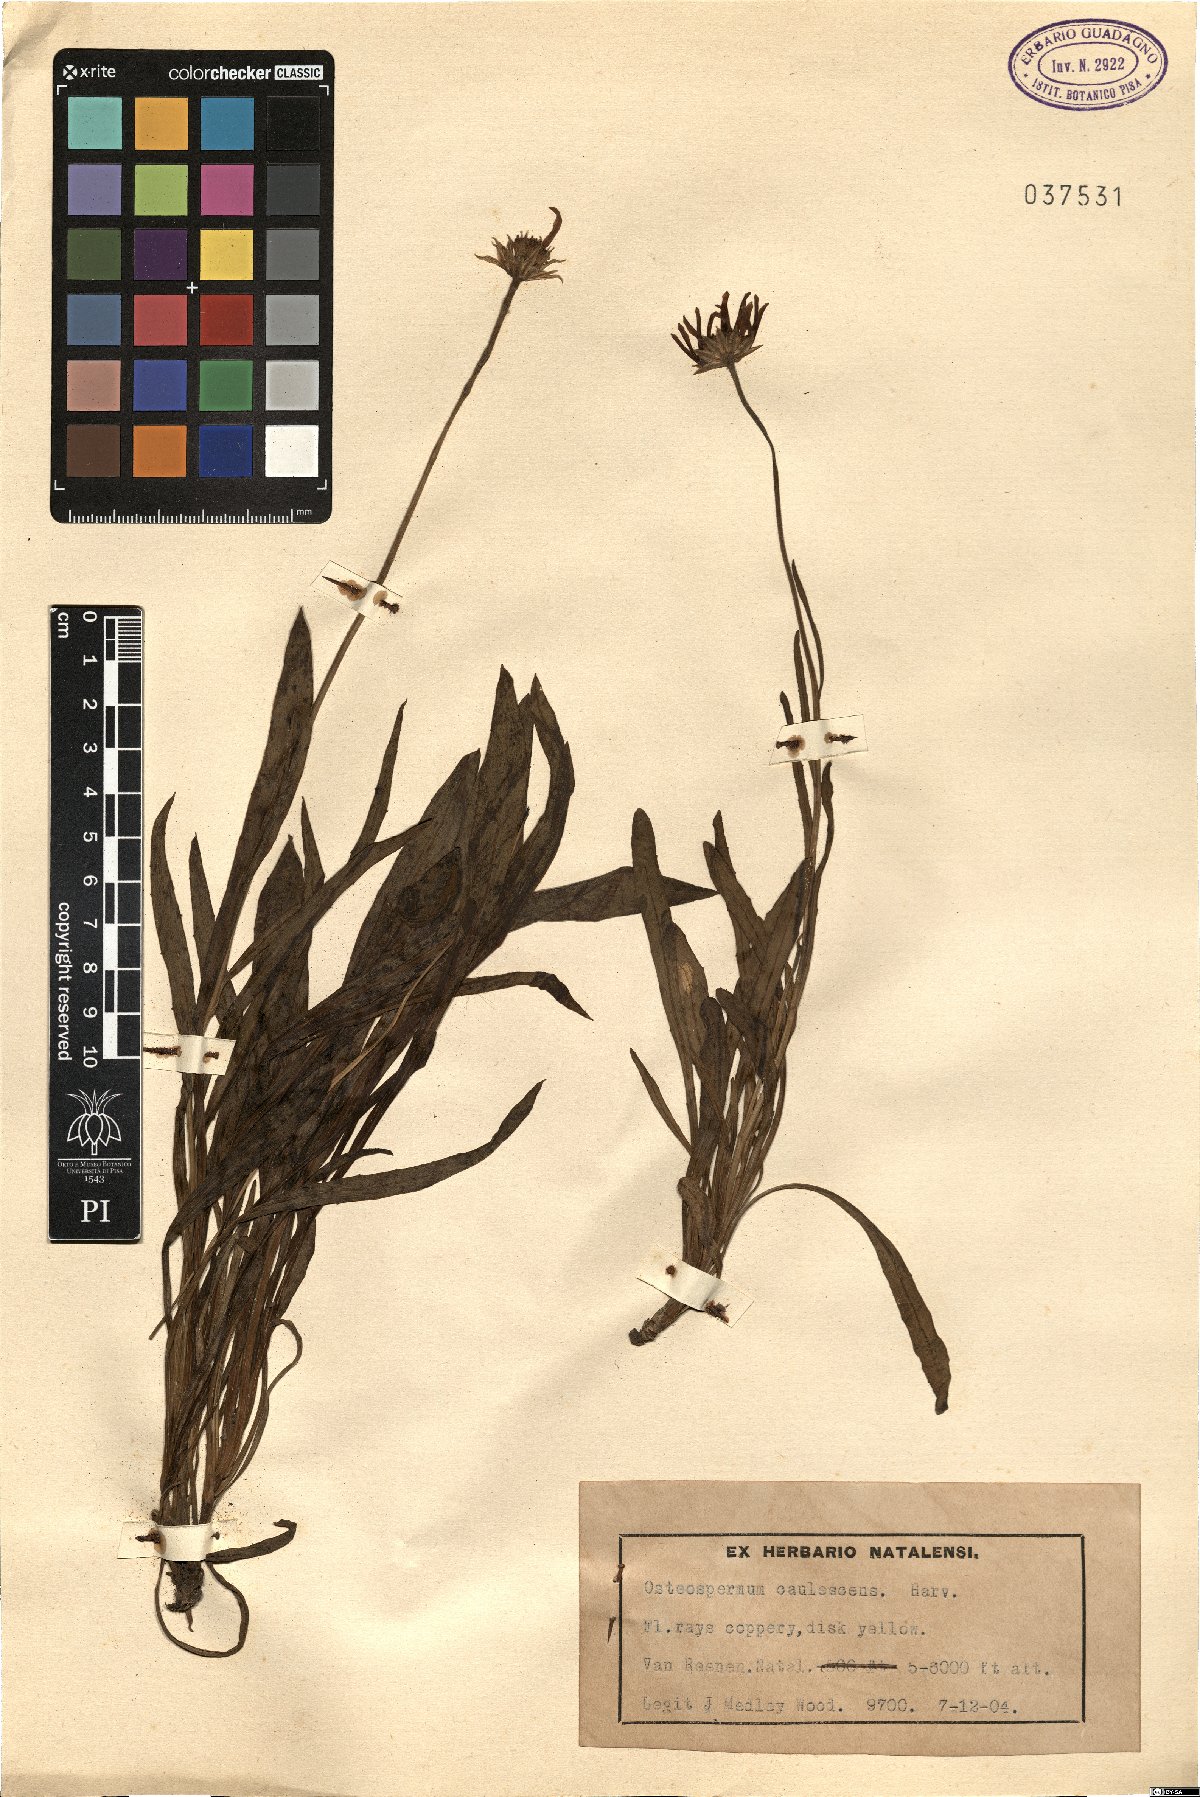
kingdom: Plantae
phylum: Tracheophyta
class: Magnoliopsida
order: Asterales
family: Asteraceae
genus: Dimorphotheca
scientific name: Dimorphotheca caulescens
